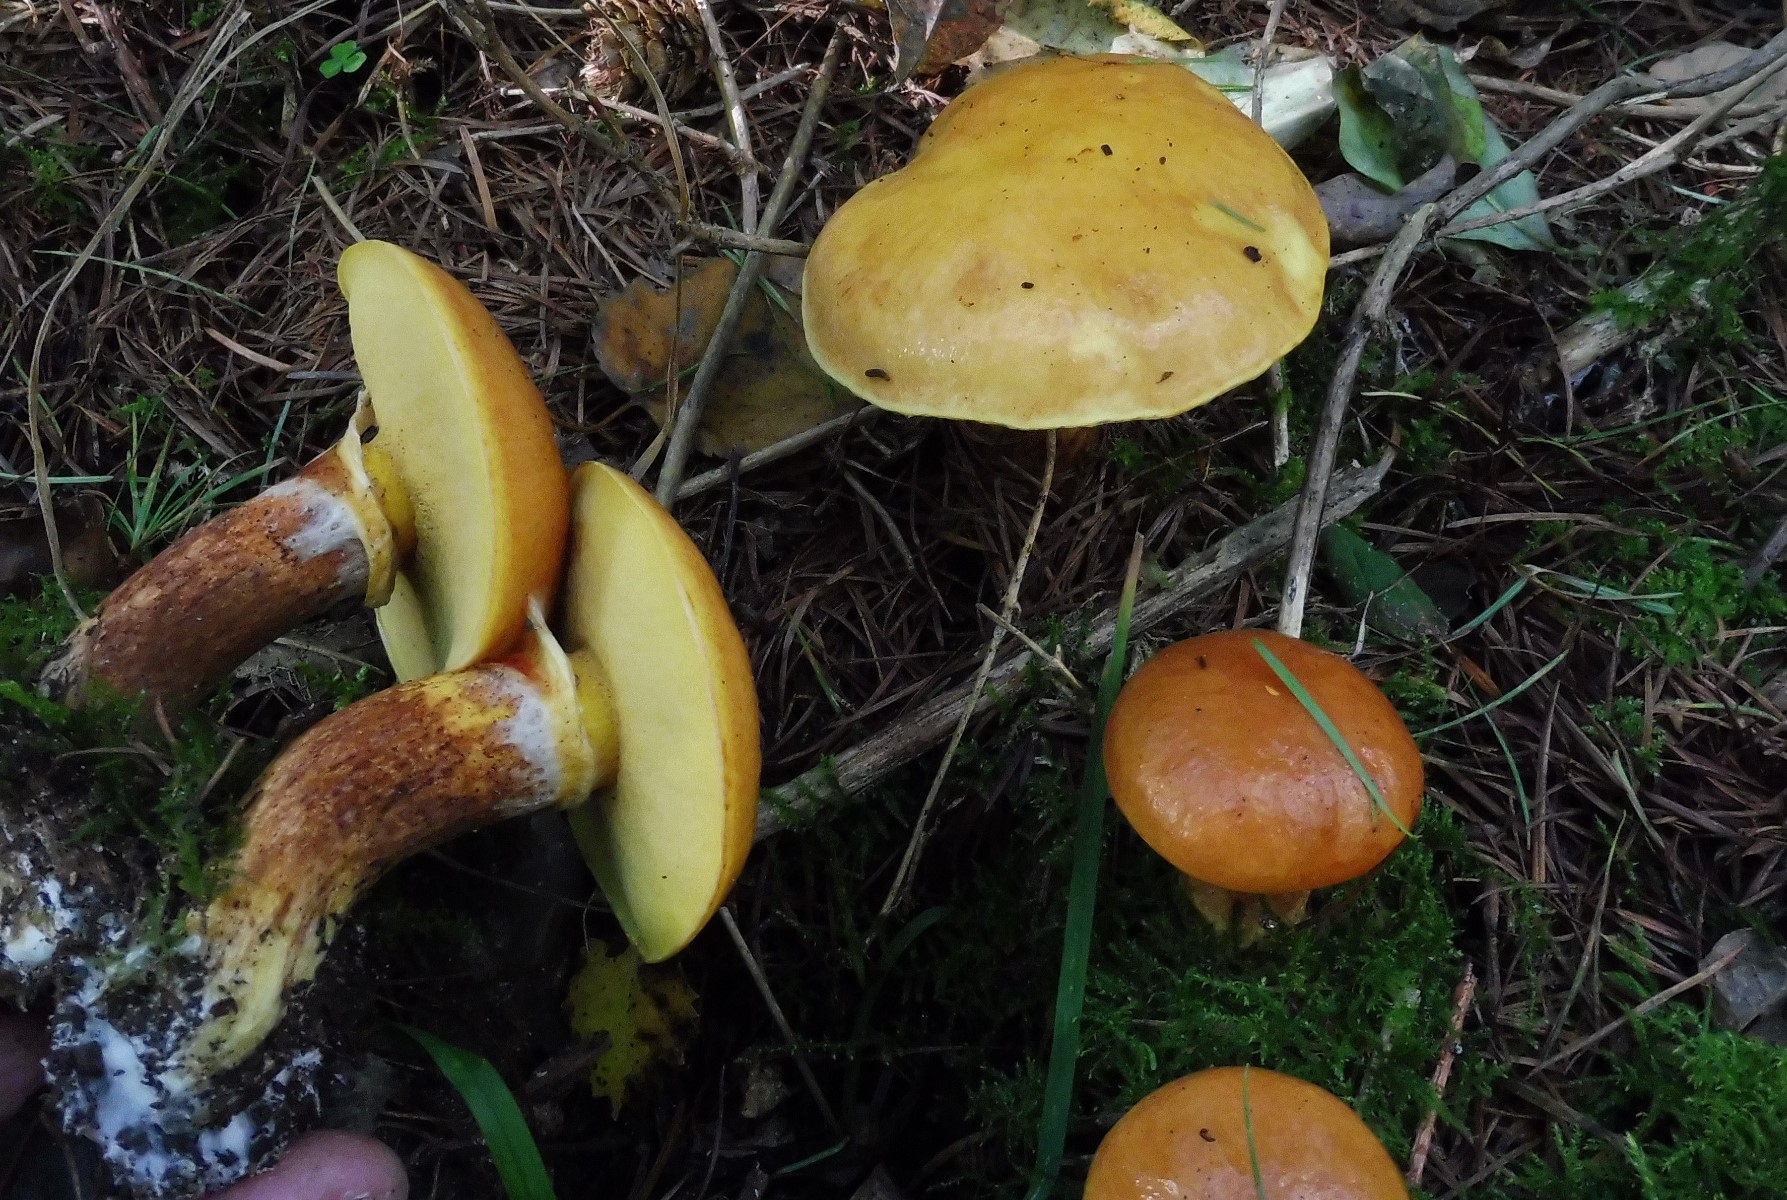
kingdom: Fungi
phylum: Basidiomycota
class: Agaricomycetes
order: Boletales
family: Suillaceae
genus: Suillus
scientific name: Suillus grevillei
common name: lærke-slimrørhat
